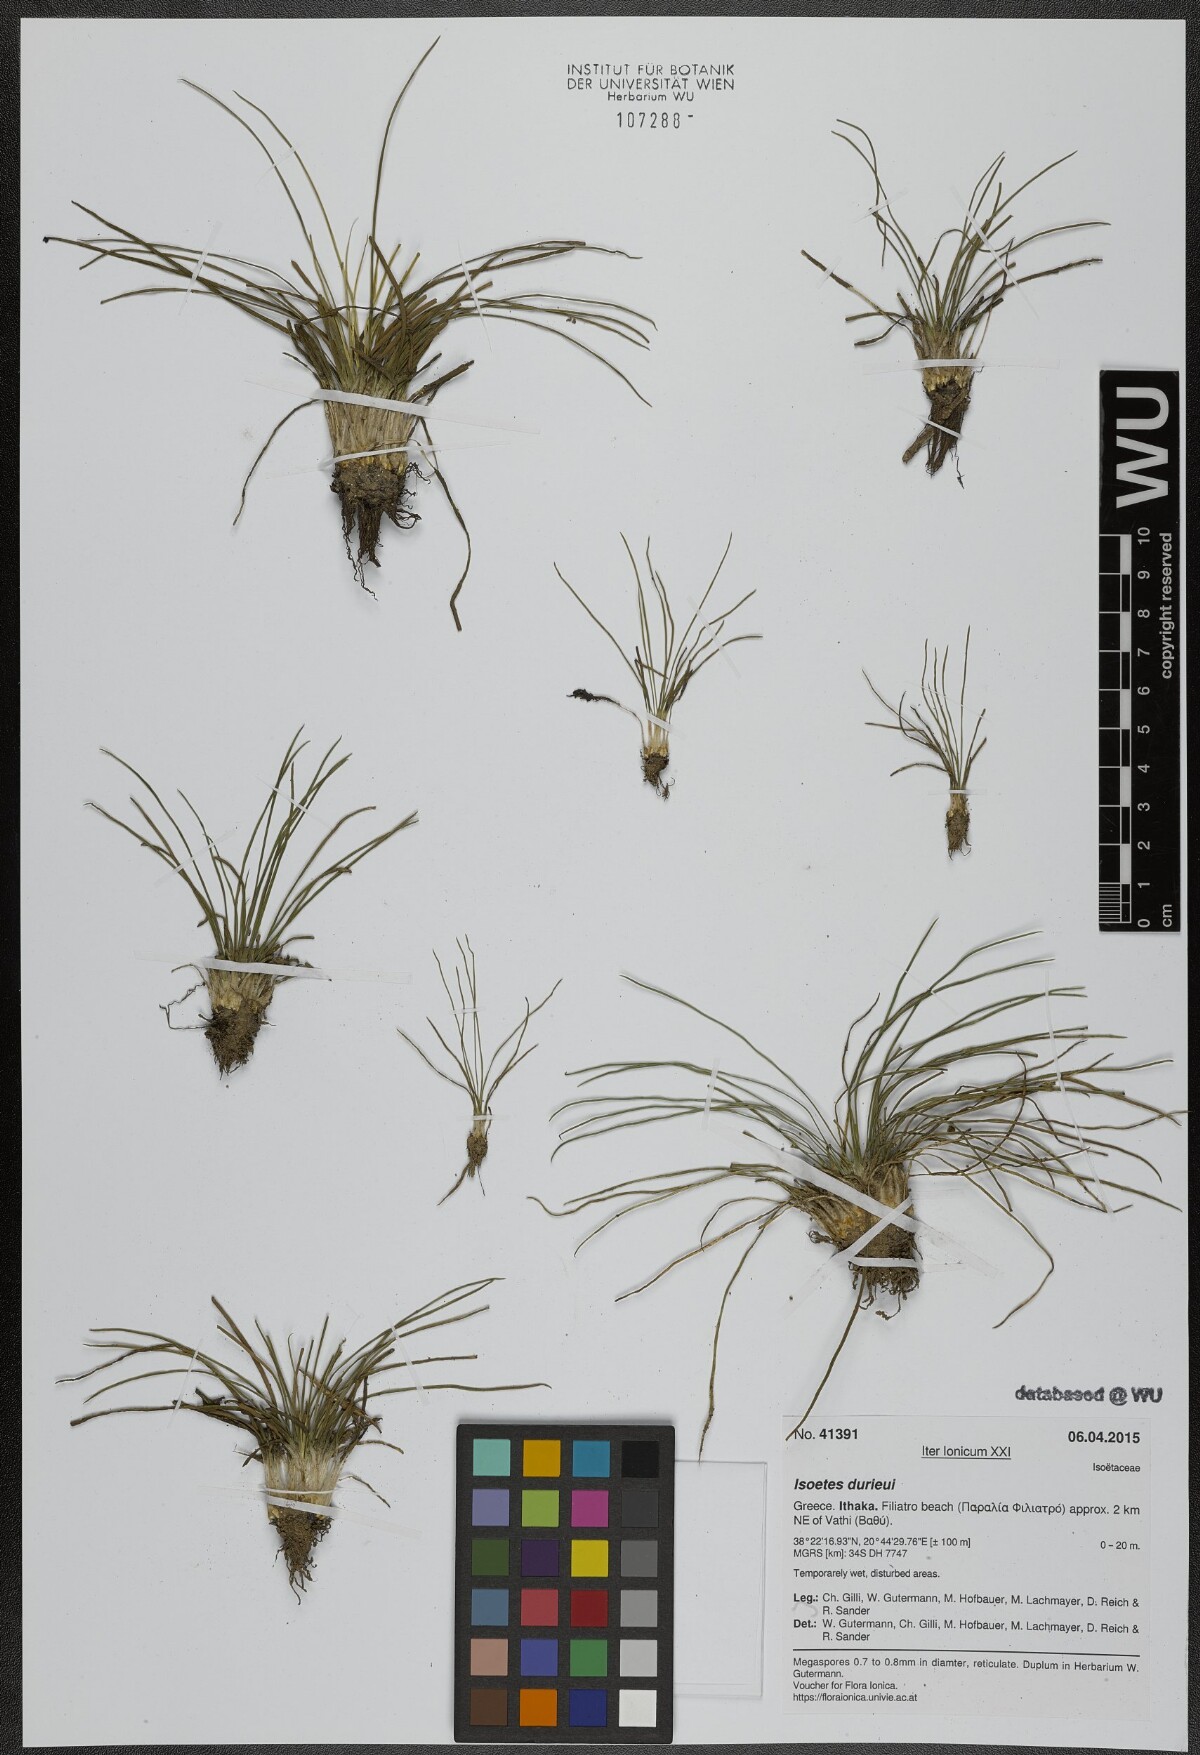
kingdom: Plantae
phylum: Tracheophyta
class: Lycopodiopsida
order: Isoetales
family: Isoetaceae
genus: Isoetes
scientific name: Isoetes duriei
